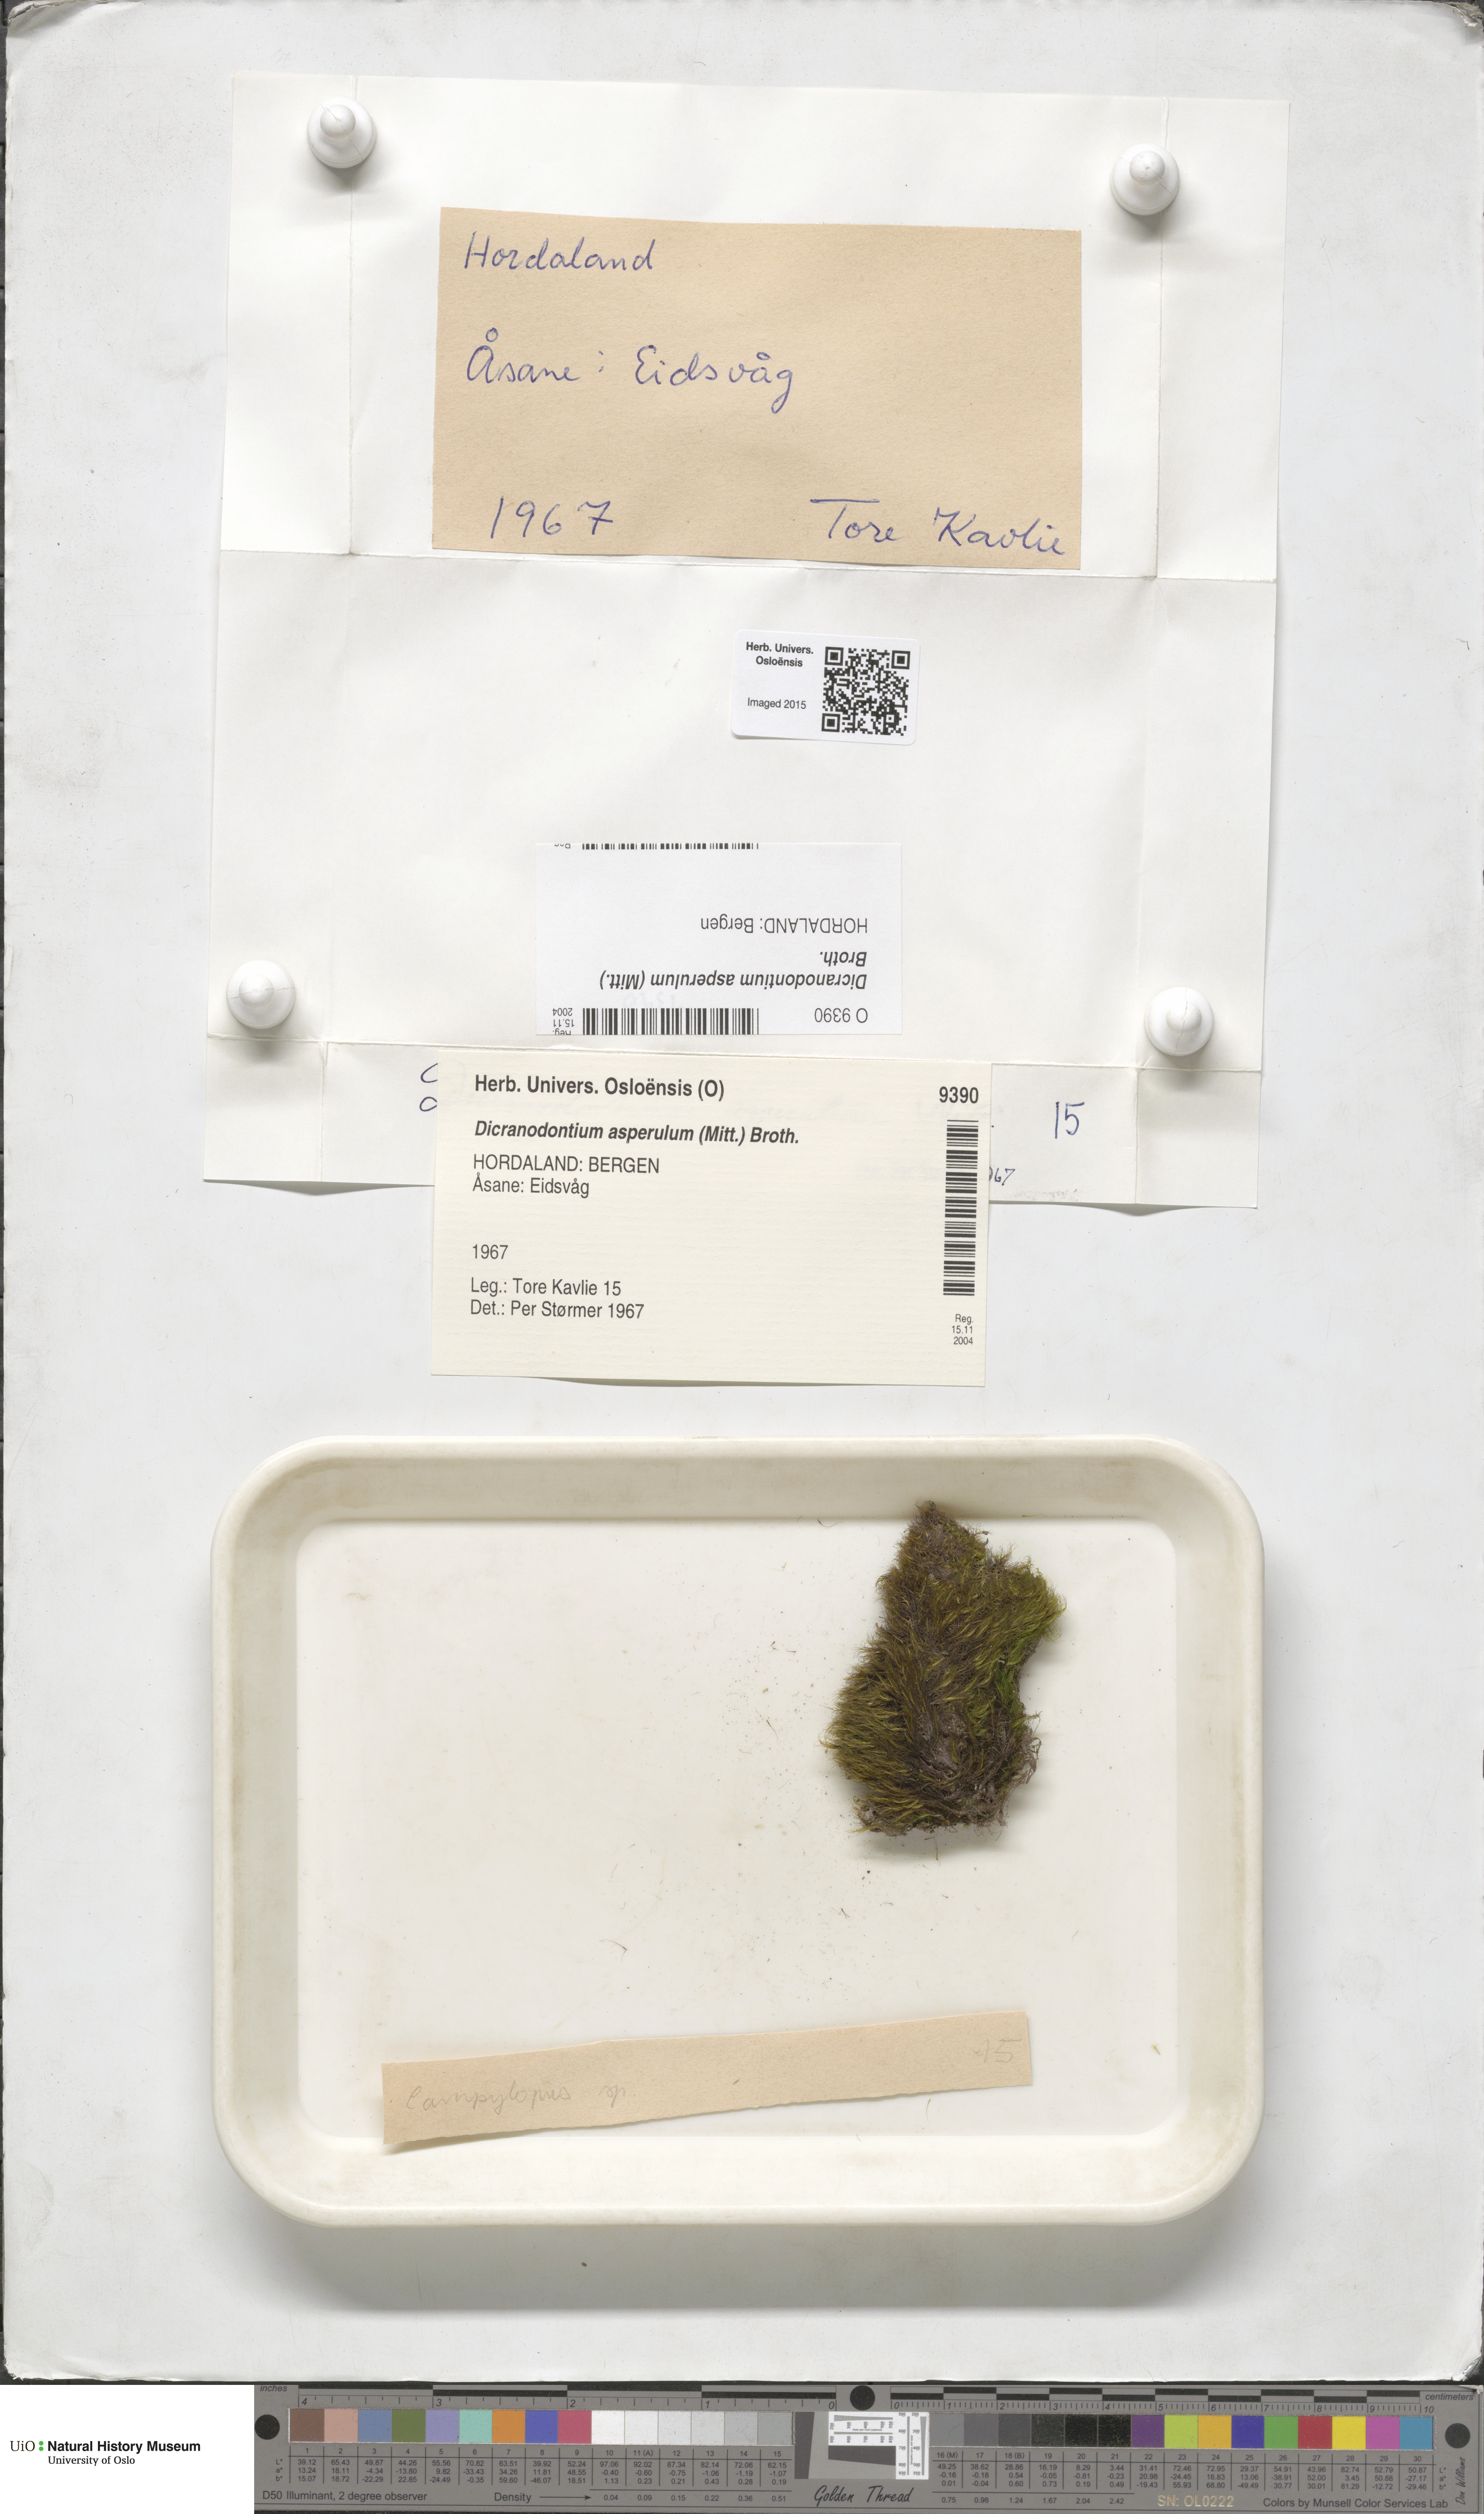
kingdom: Plantae
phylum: Bryophyta
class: Bryopsida
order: Dicranales
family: Leucobryaceae
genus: Dicranodontium
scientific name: Dicranodontium asperulum
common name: Orange bow-moss
